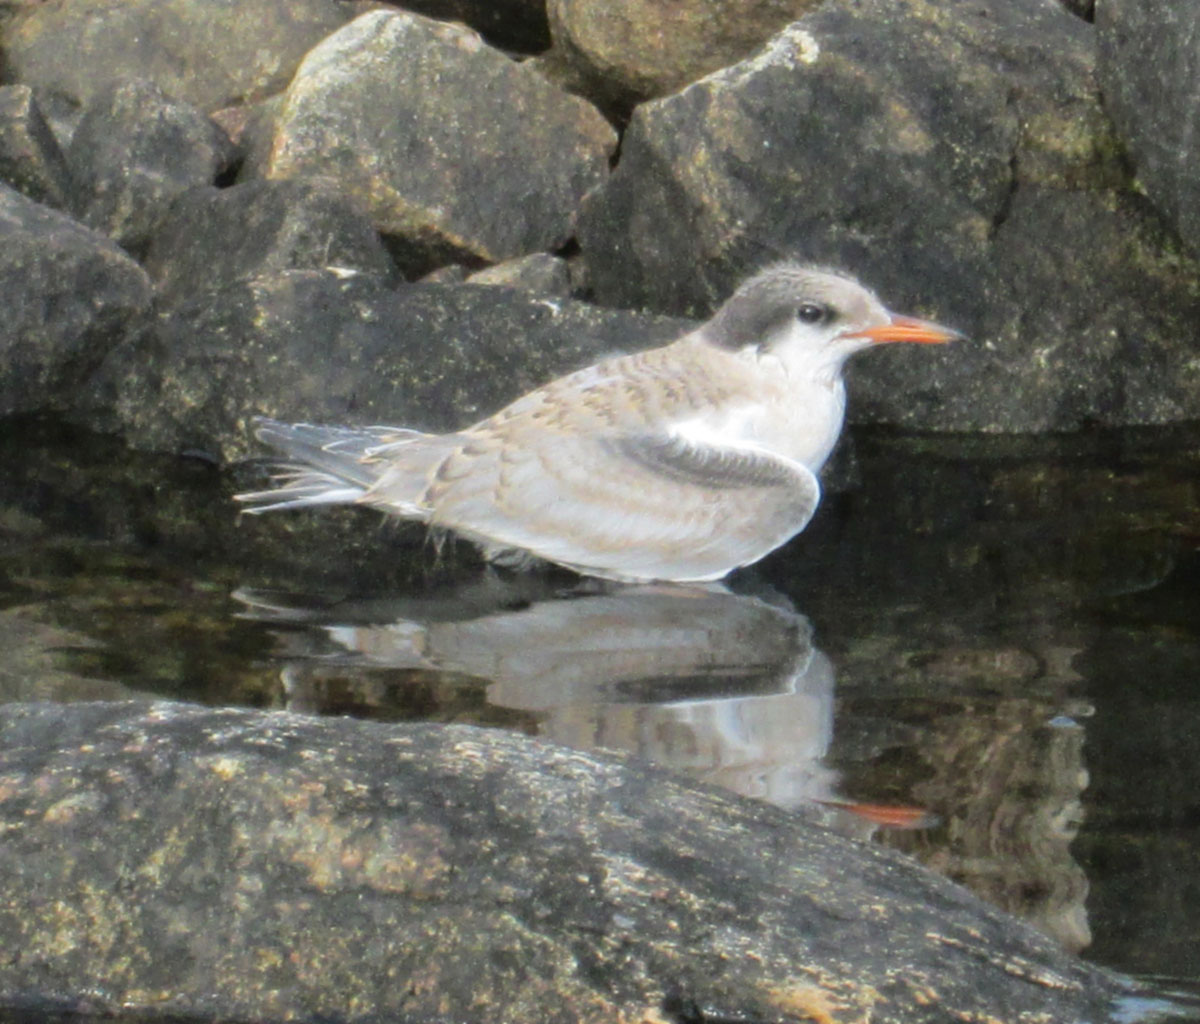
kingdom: Animalia
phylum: Chordata
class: Aves
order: Charadriiformes
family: Laridae
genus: Sterna
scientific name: Sterna paradisaea
